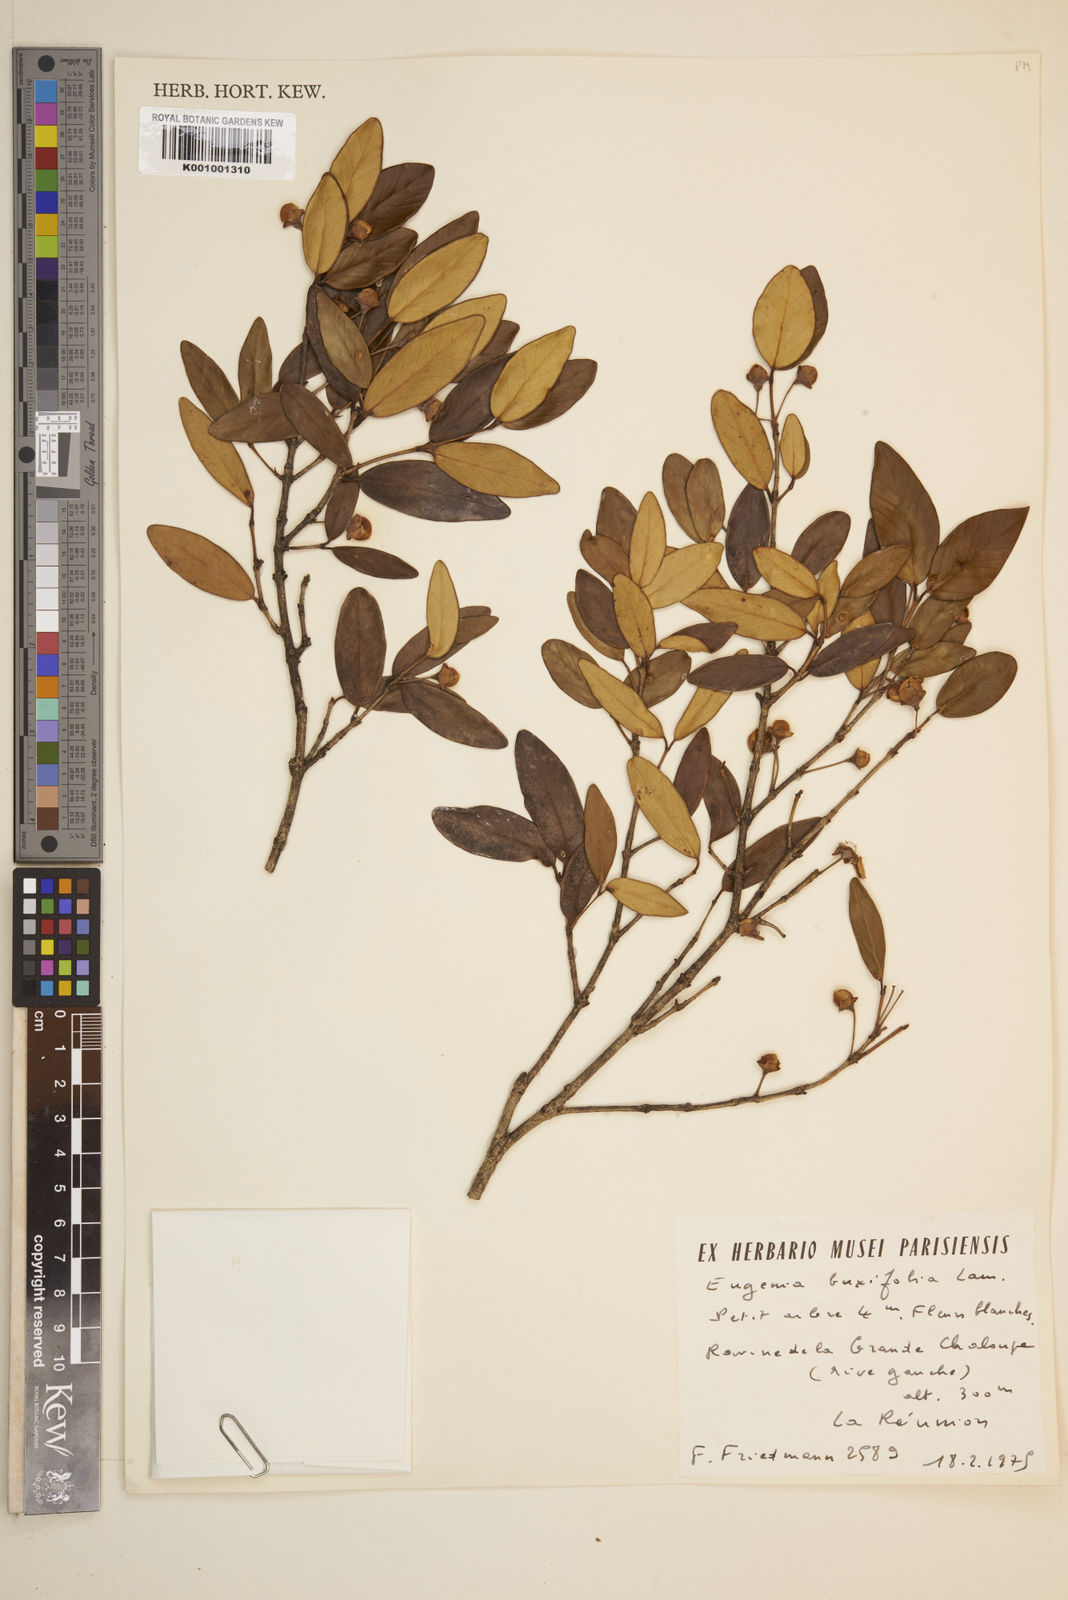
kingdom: Plantae
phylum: Tracheophyta
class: Magnoliopsida
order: Myrtales
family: Myrtaceae
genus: Eugenia
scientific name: Eugenia buxifolia
